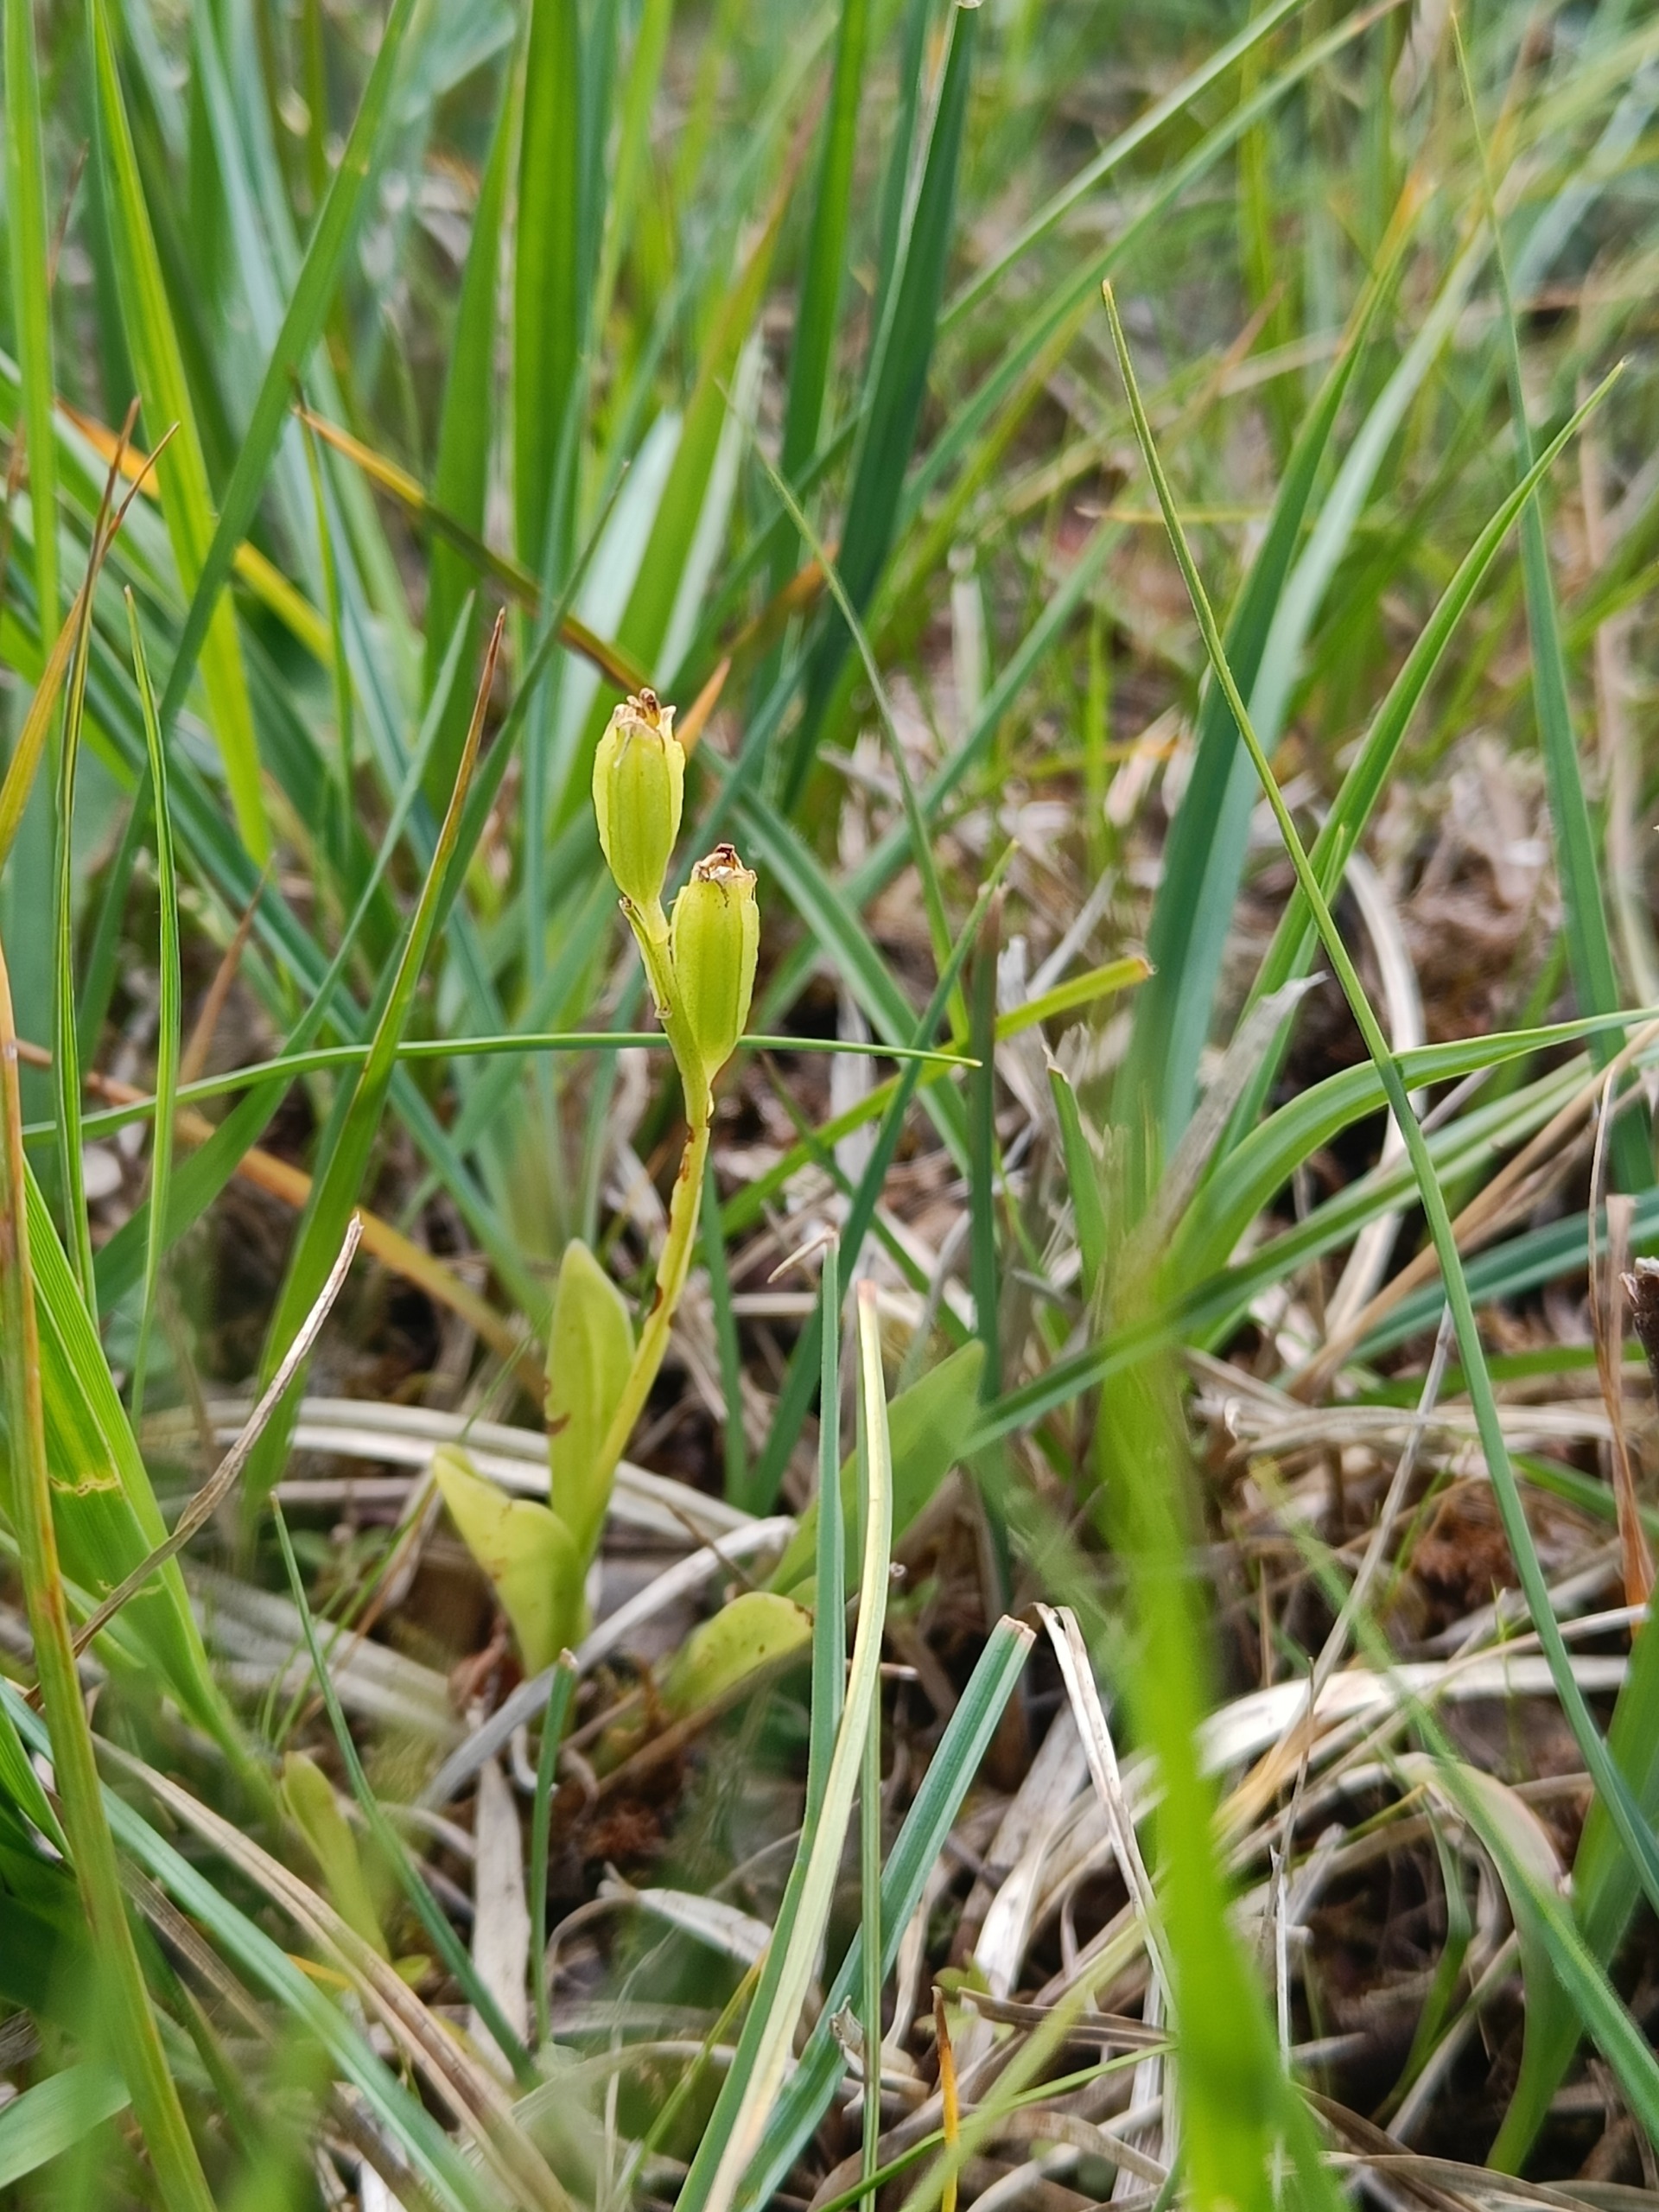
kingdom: Animalia
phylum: Arthropoda
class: Insecta
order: Coleoptera
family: Curculionidae
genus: Liparis
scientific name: Liparis loeselii
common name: Mygblomst
